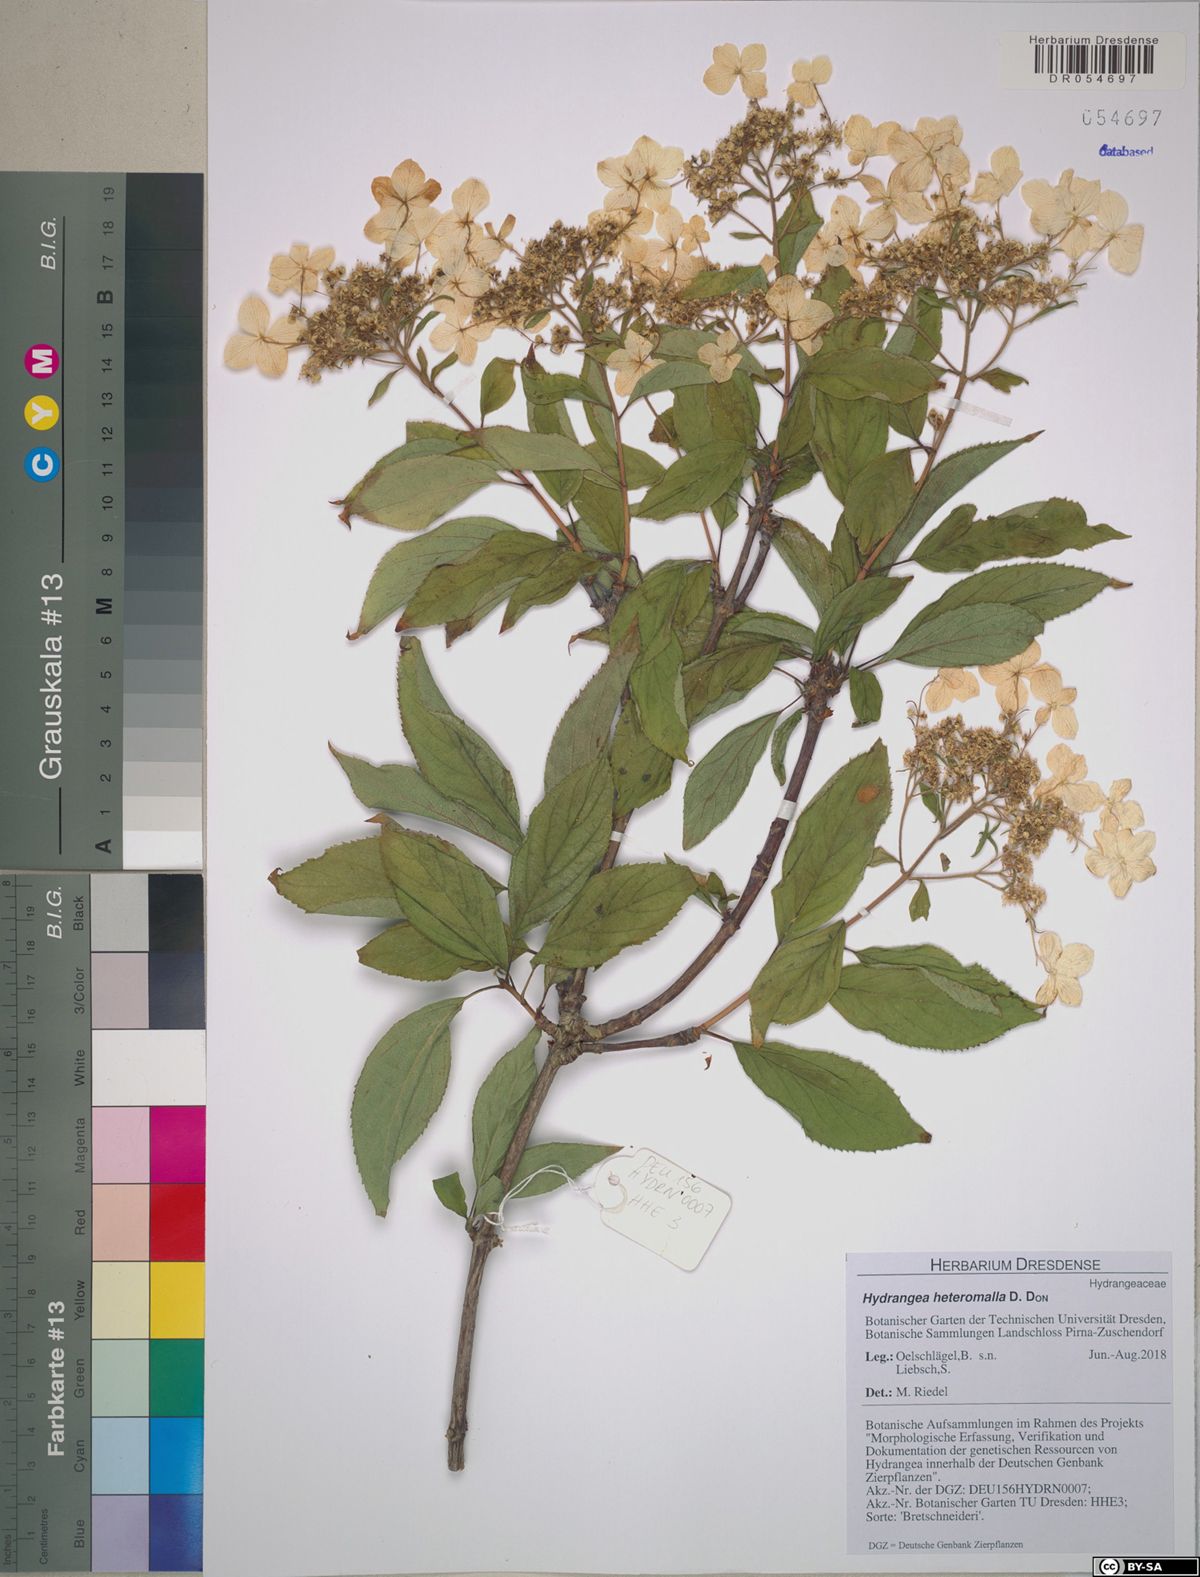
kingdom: Plantae
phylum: Tracheophyta
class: Magnoliopsida
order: Cornales
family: Hydrangeaceae
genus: Hydrangea
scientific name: Hydrangea heteromalla
